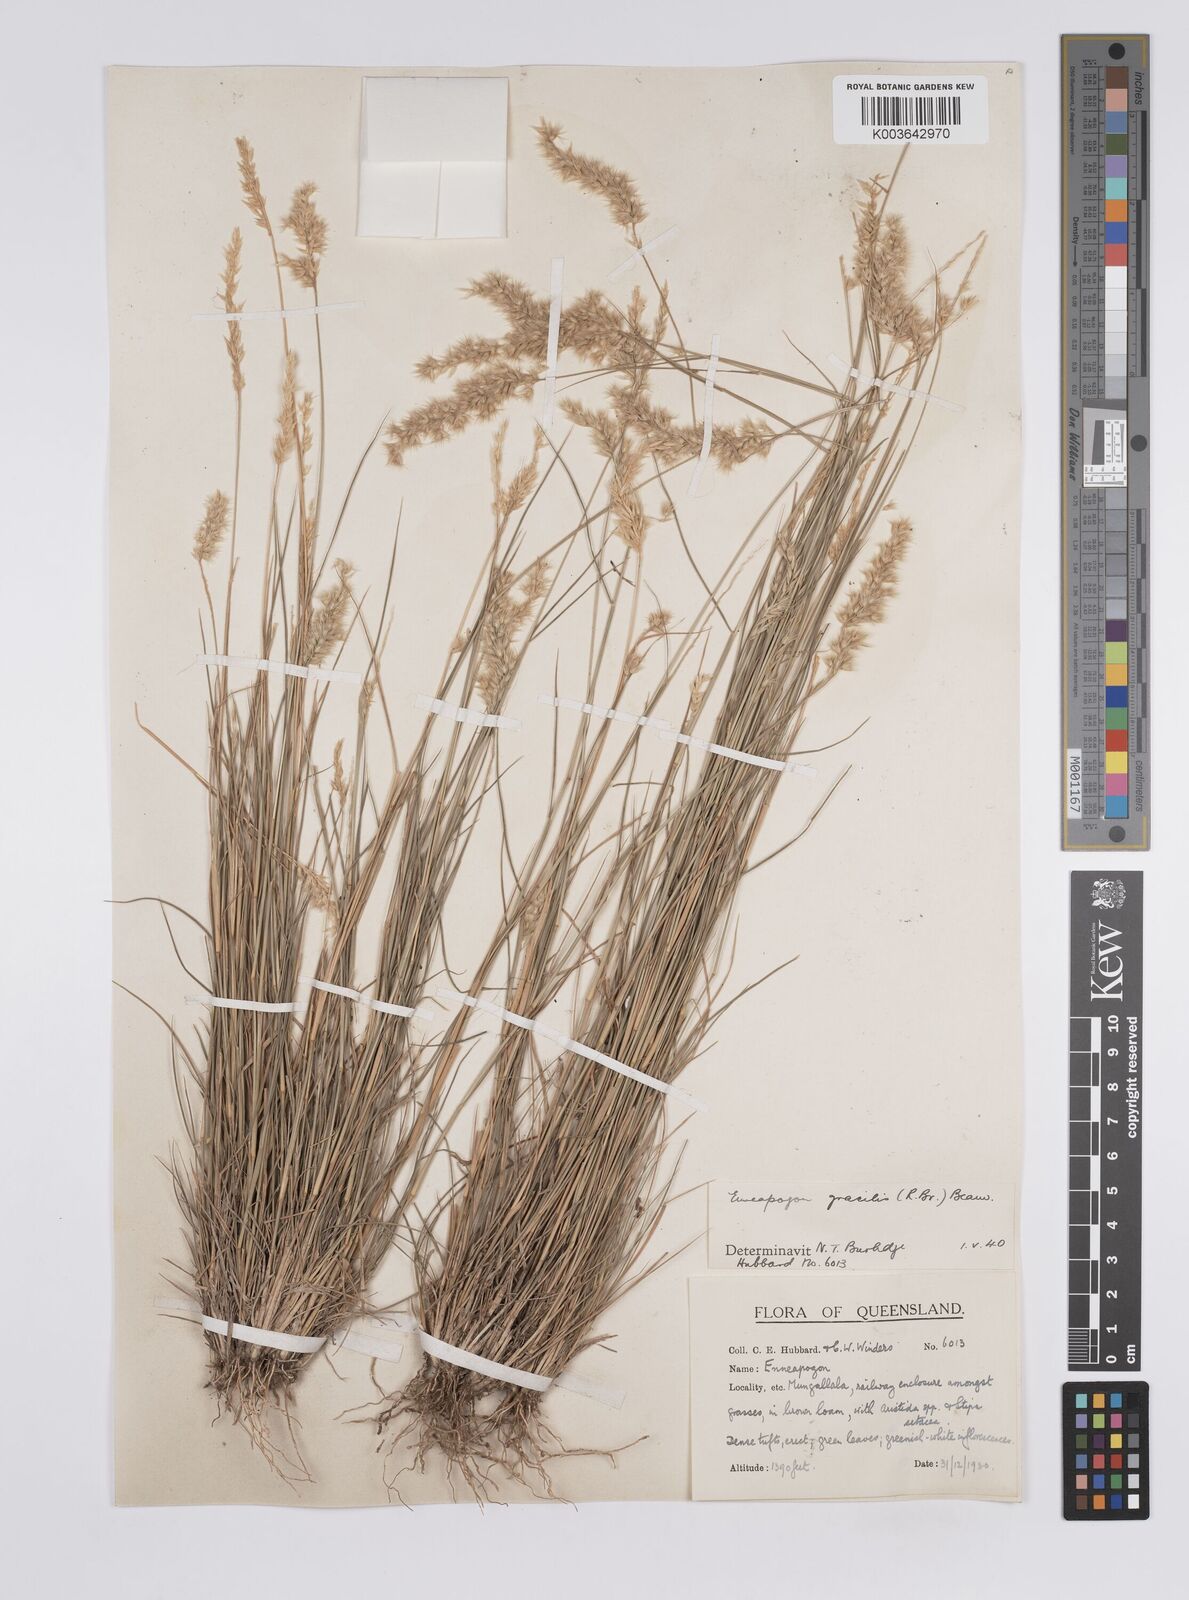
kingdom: Plantae
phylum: Tracheophyta
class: Liliopsida
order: Poales
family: Poaceae
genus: Enneapogon
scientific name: Enneapogon gracilis
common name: Slender bottle-washers
